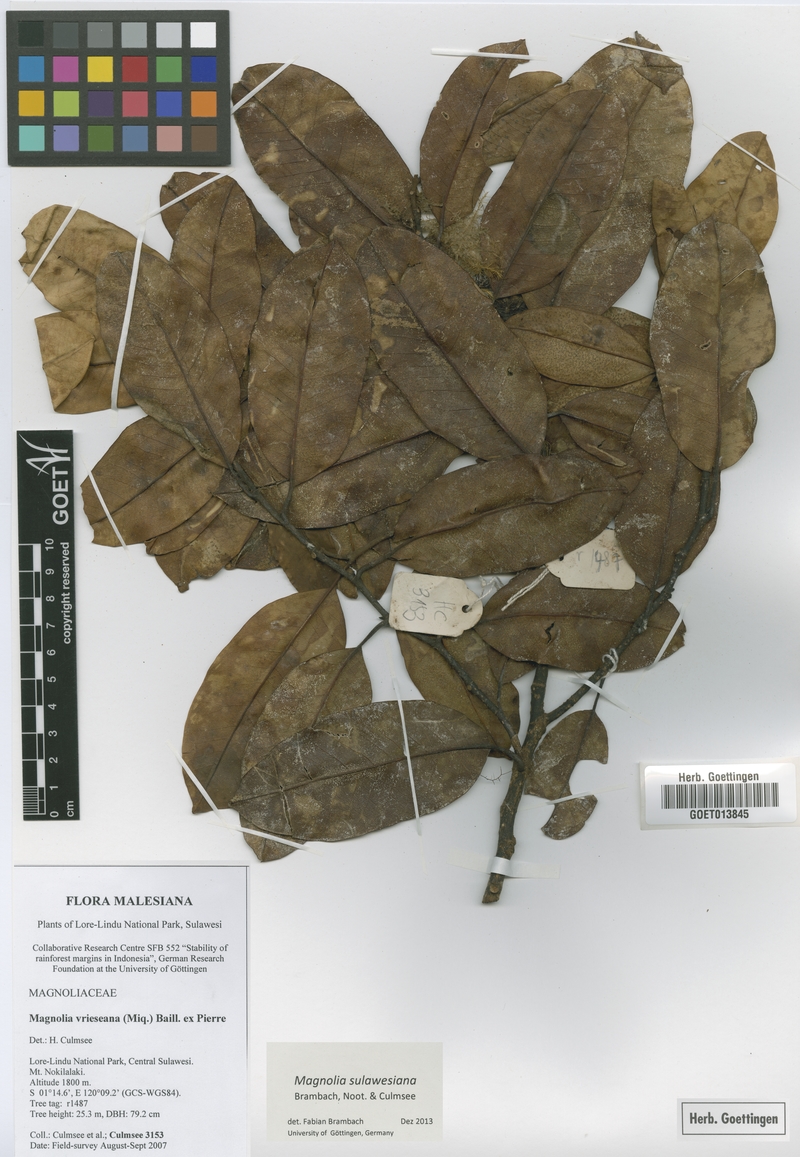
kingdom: Plantae
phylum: Tracheophyta
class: Magnoliopsida
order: Magnoliales
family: Magnoliaceae
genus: Magnolia
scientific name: Magnolia sulawesiana
